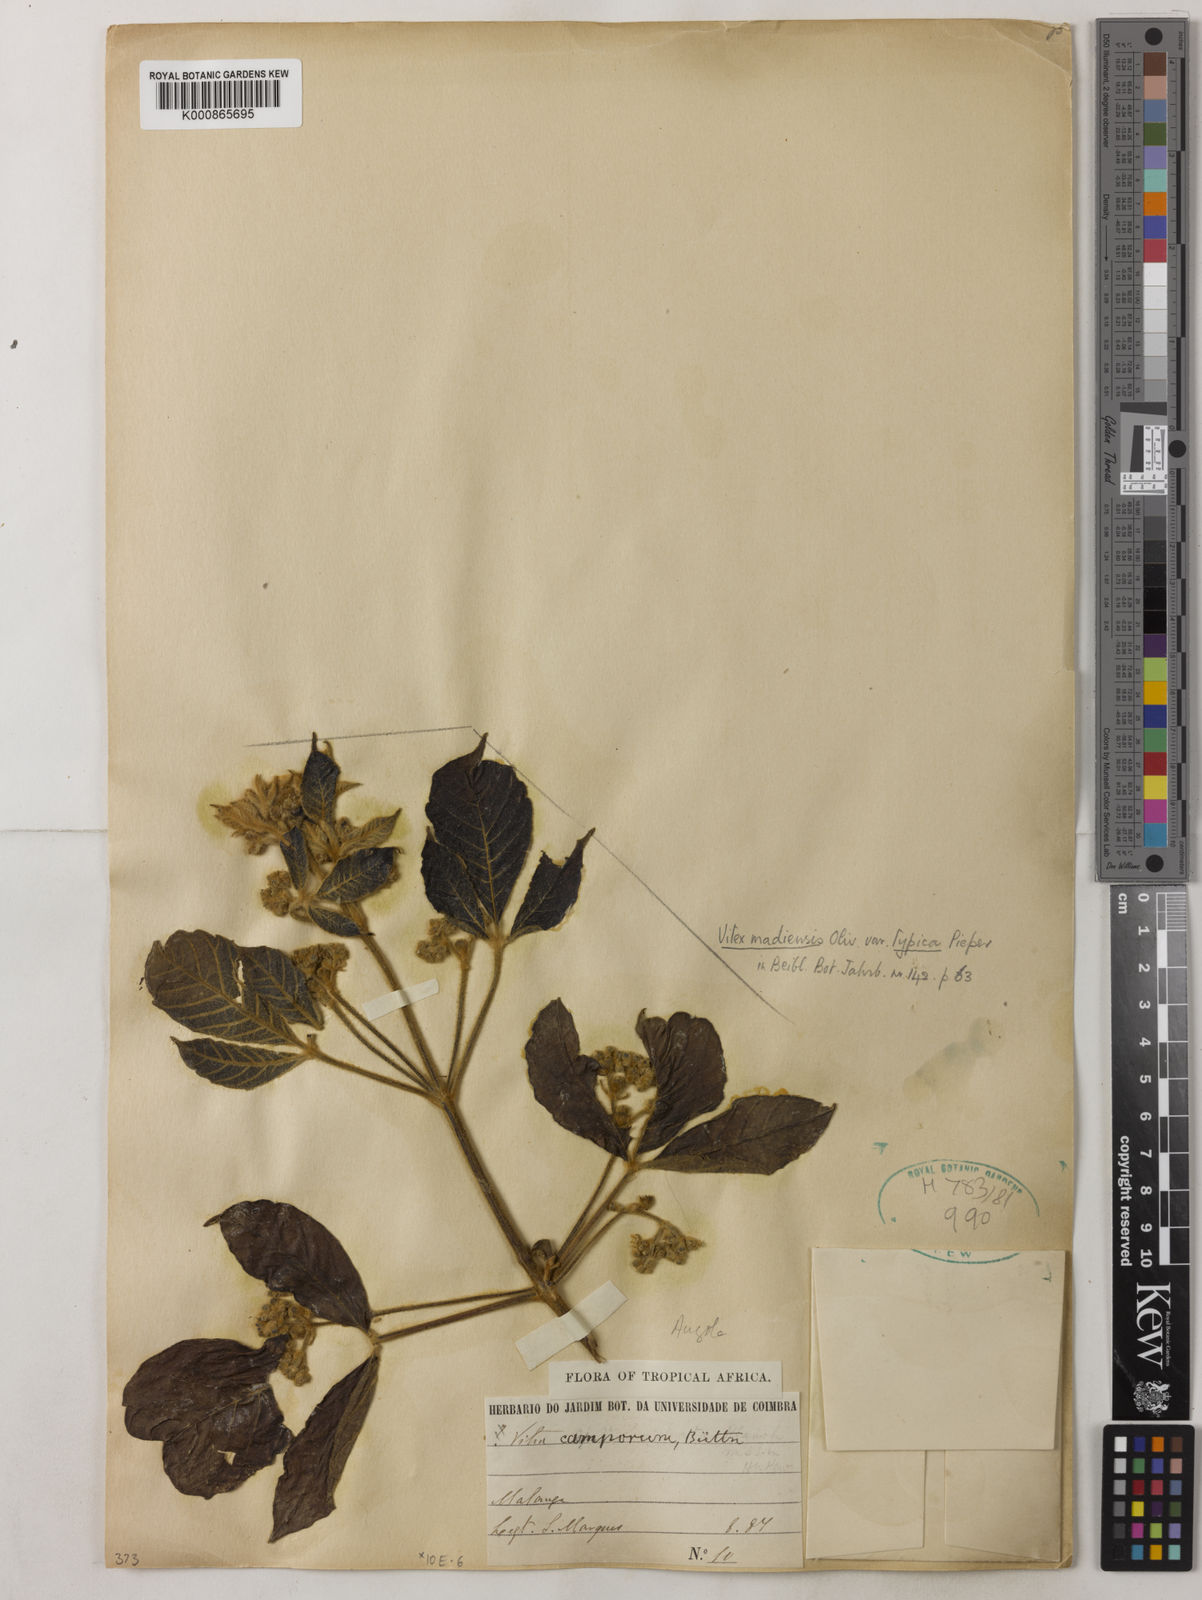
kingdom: Plantae
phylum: Tracheophyta
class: Magnoliopsida
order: Lamiales
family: Lamiaceae
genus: Vitex
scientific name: Vitex madiensis
